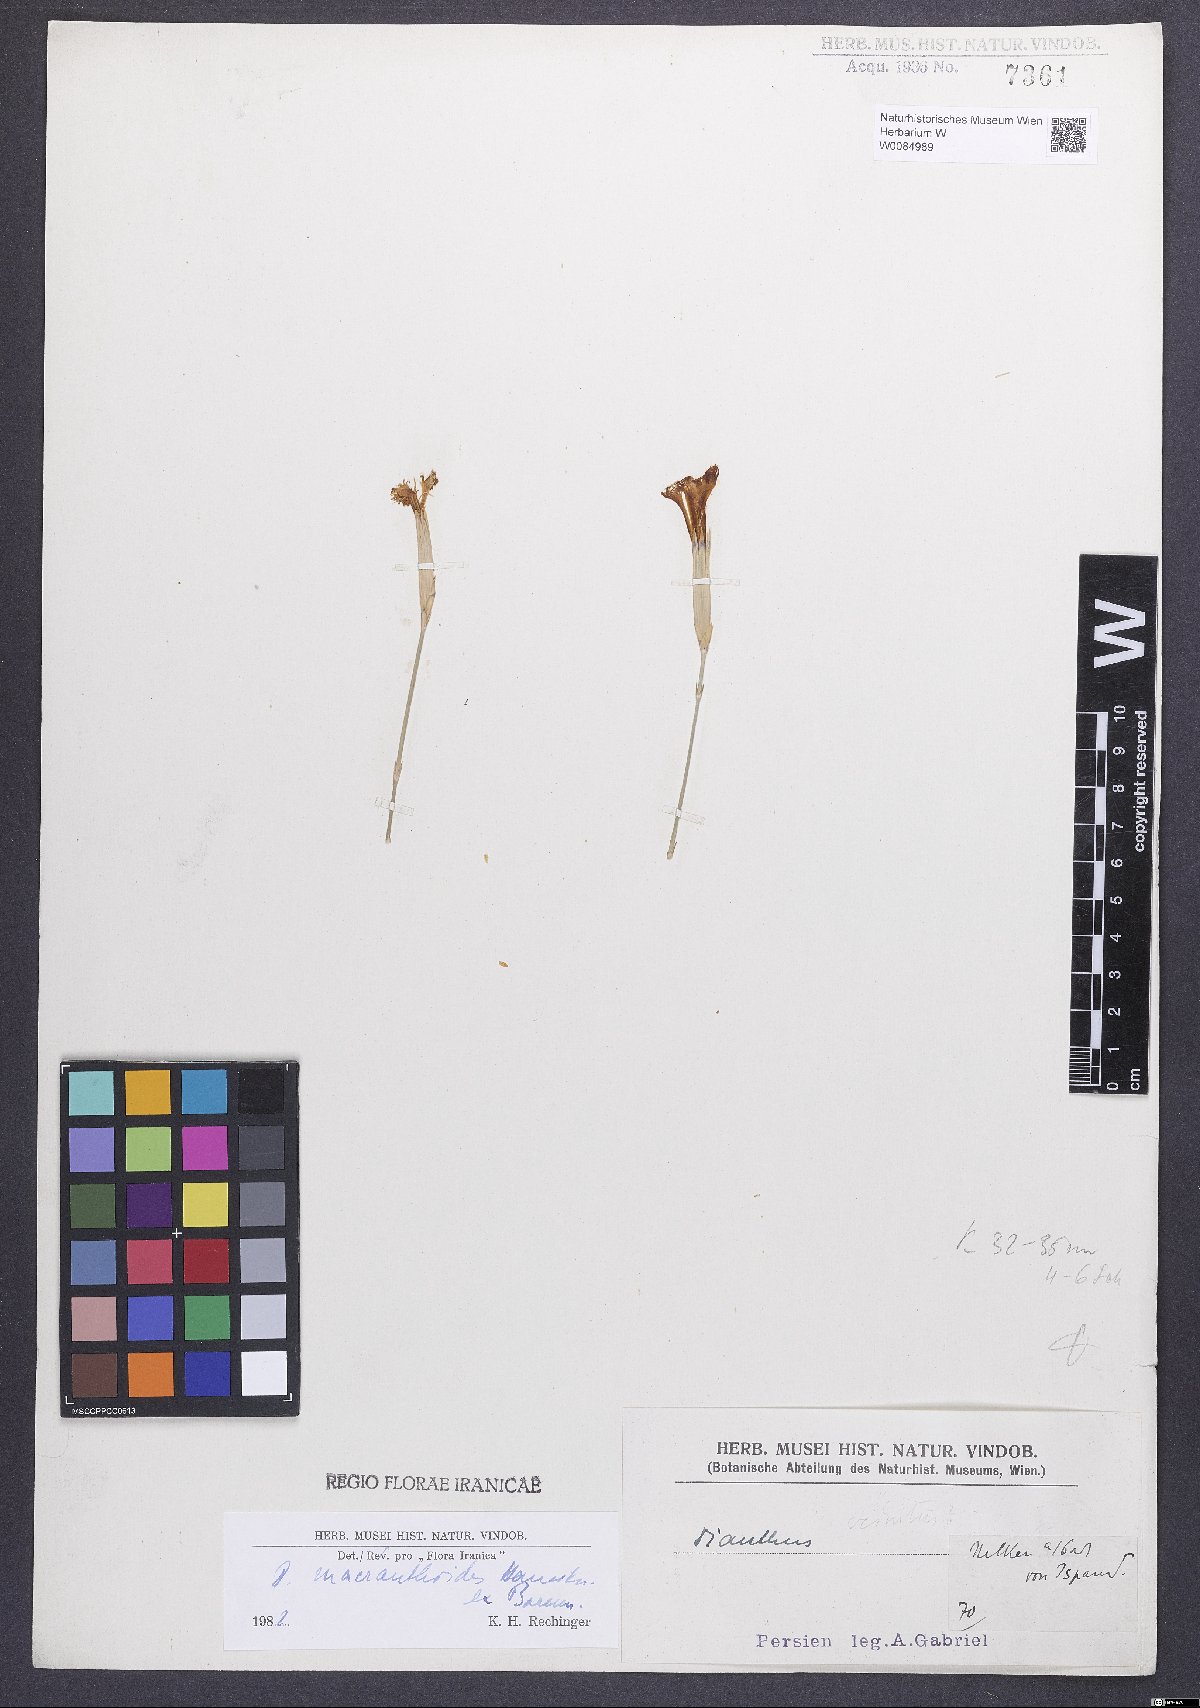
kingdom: Plantae
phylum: Tracheophyta
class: Magnoliopsida
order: Caryophyllales
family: Caryophyllaceae
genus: Dianthus
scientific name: Dianthus macranthoides
